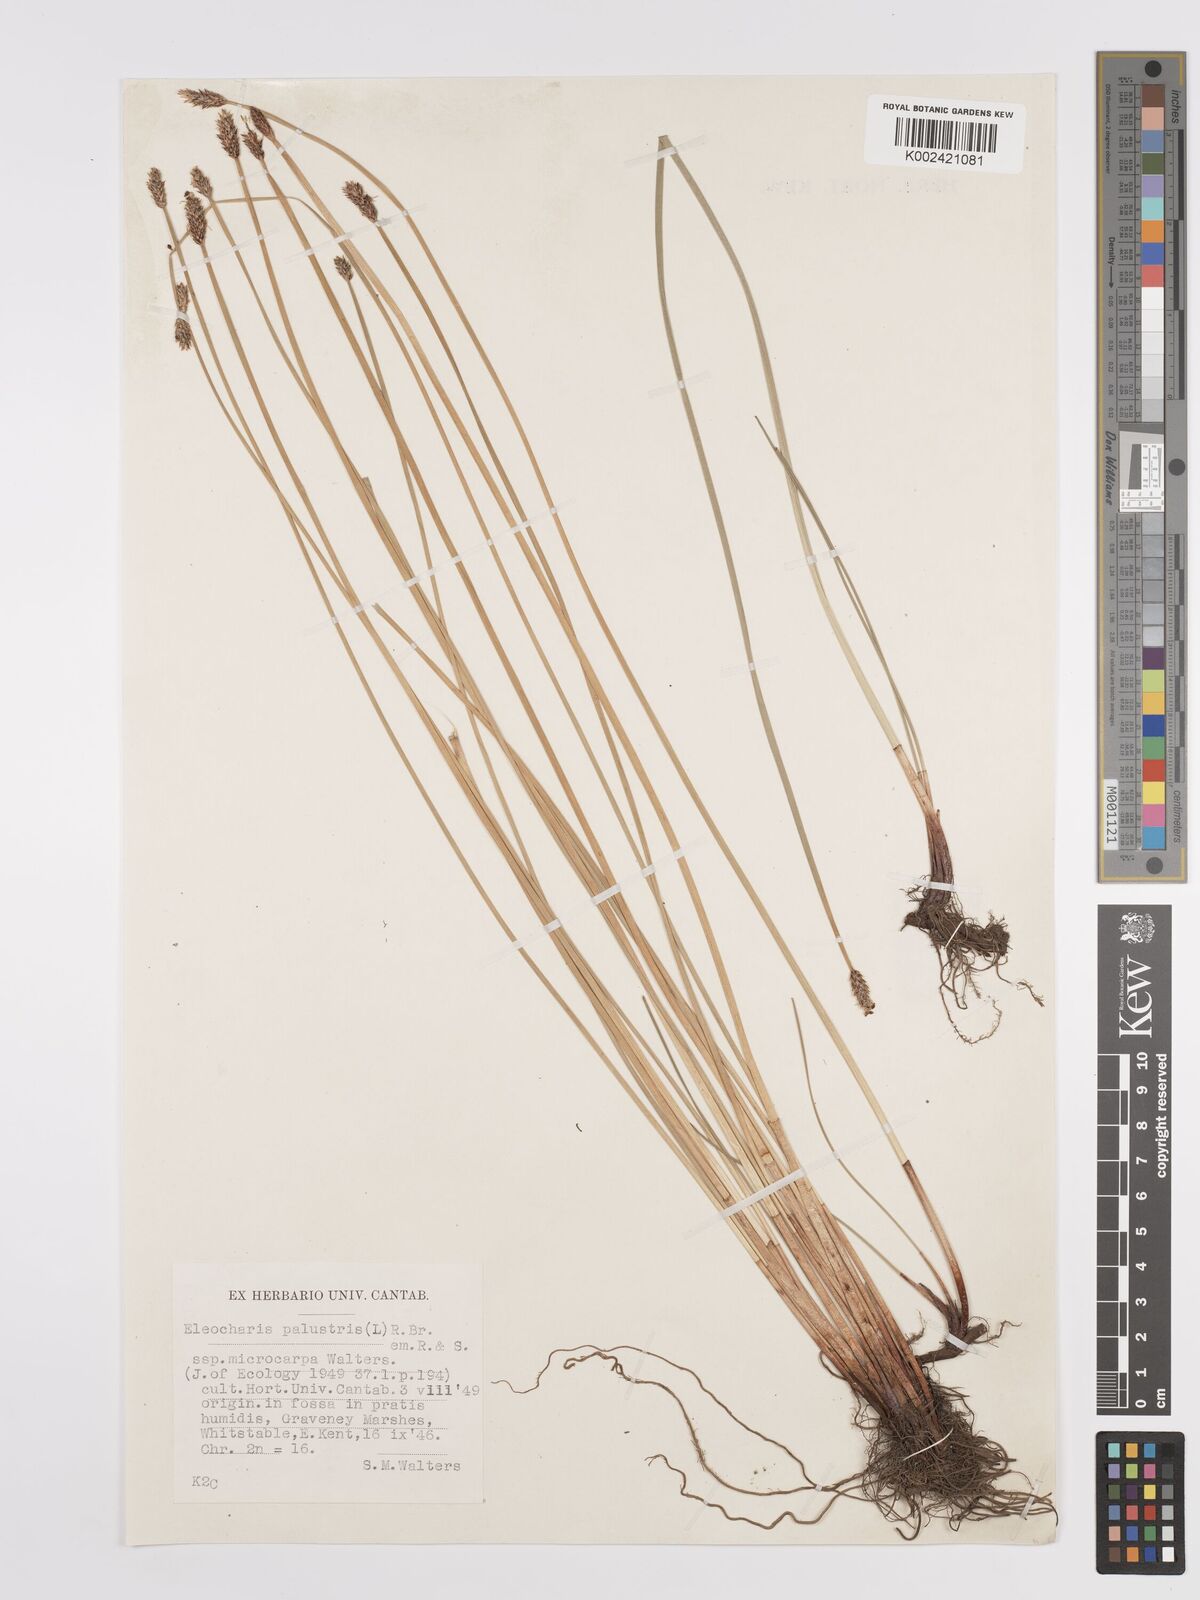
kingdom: Plantae
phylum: Tracheophyta
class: Liliopsida
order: Poales
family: Cyperaceae
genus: Eleocharis
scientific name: Eleocharis palustris
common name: Common spike-rush
